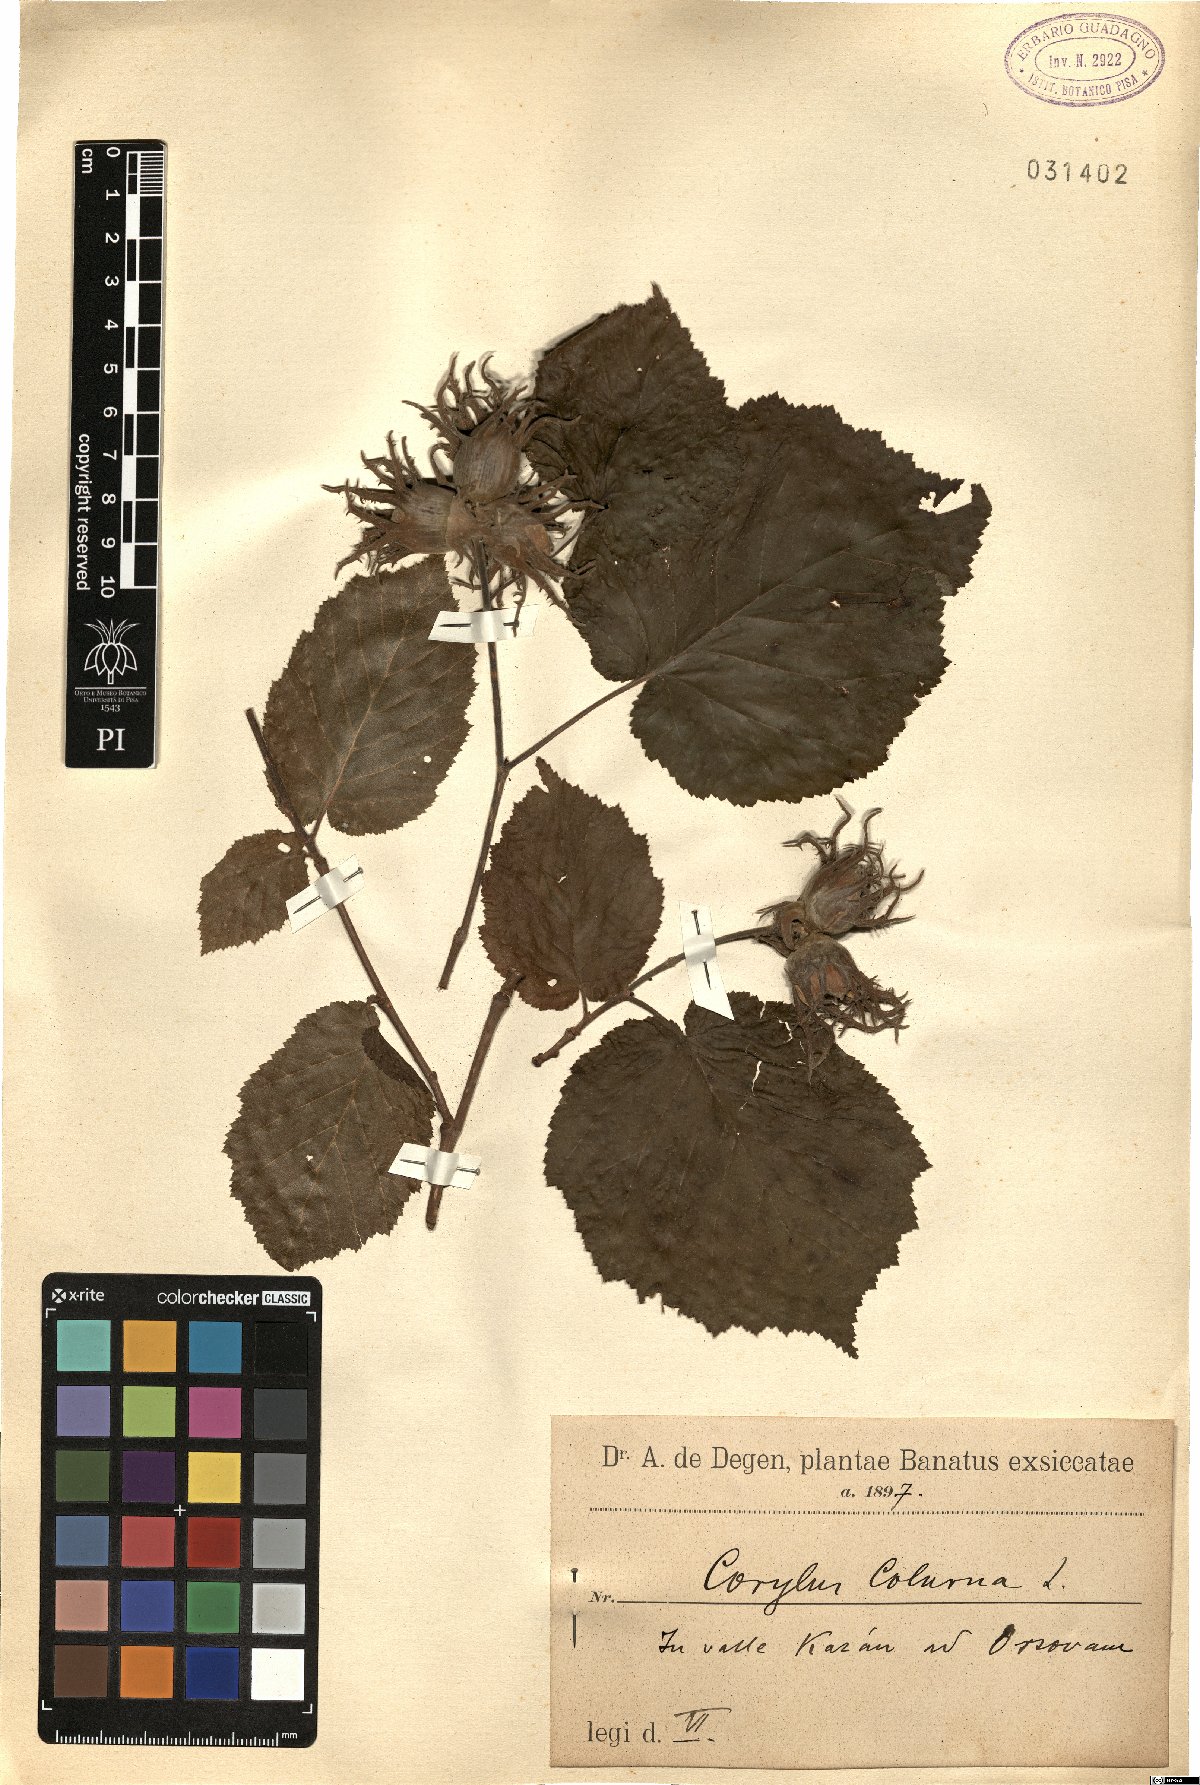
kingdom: Plantae
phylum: Tracheophyta
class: Magnoliopsida
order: Fagales
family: Betulaceae
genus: Corylus
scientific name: Corylus colurna
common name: Turkish hazel
